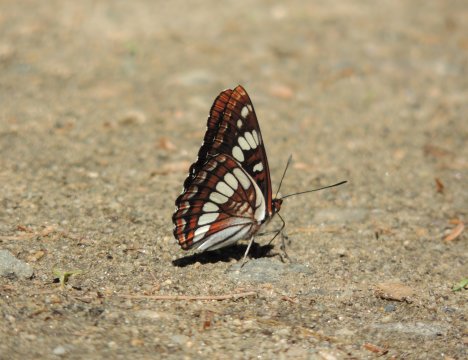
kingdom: Animalia
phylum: Arthropoda
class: Insecta
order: Lepidoptera
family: Nymphalidae
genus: Limenitis
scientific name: Limenitis lorquini
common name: Lorquin's Admiral
